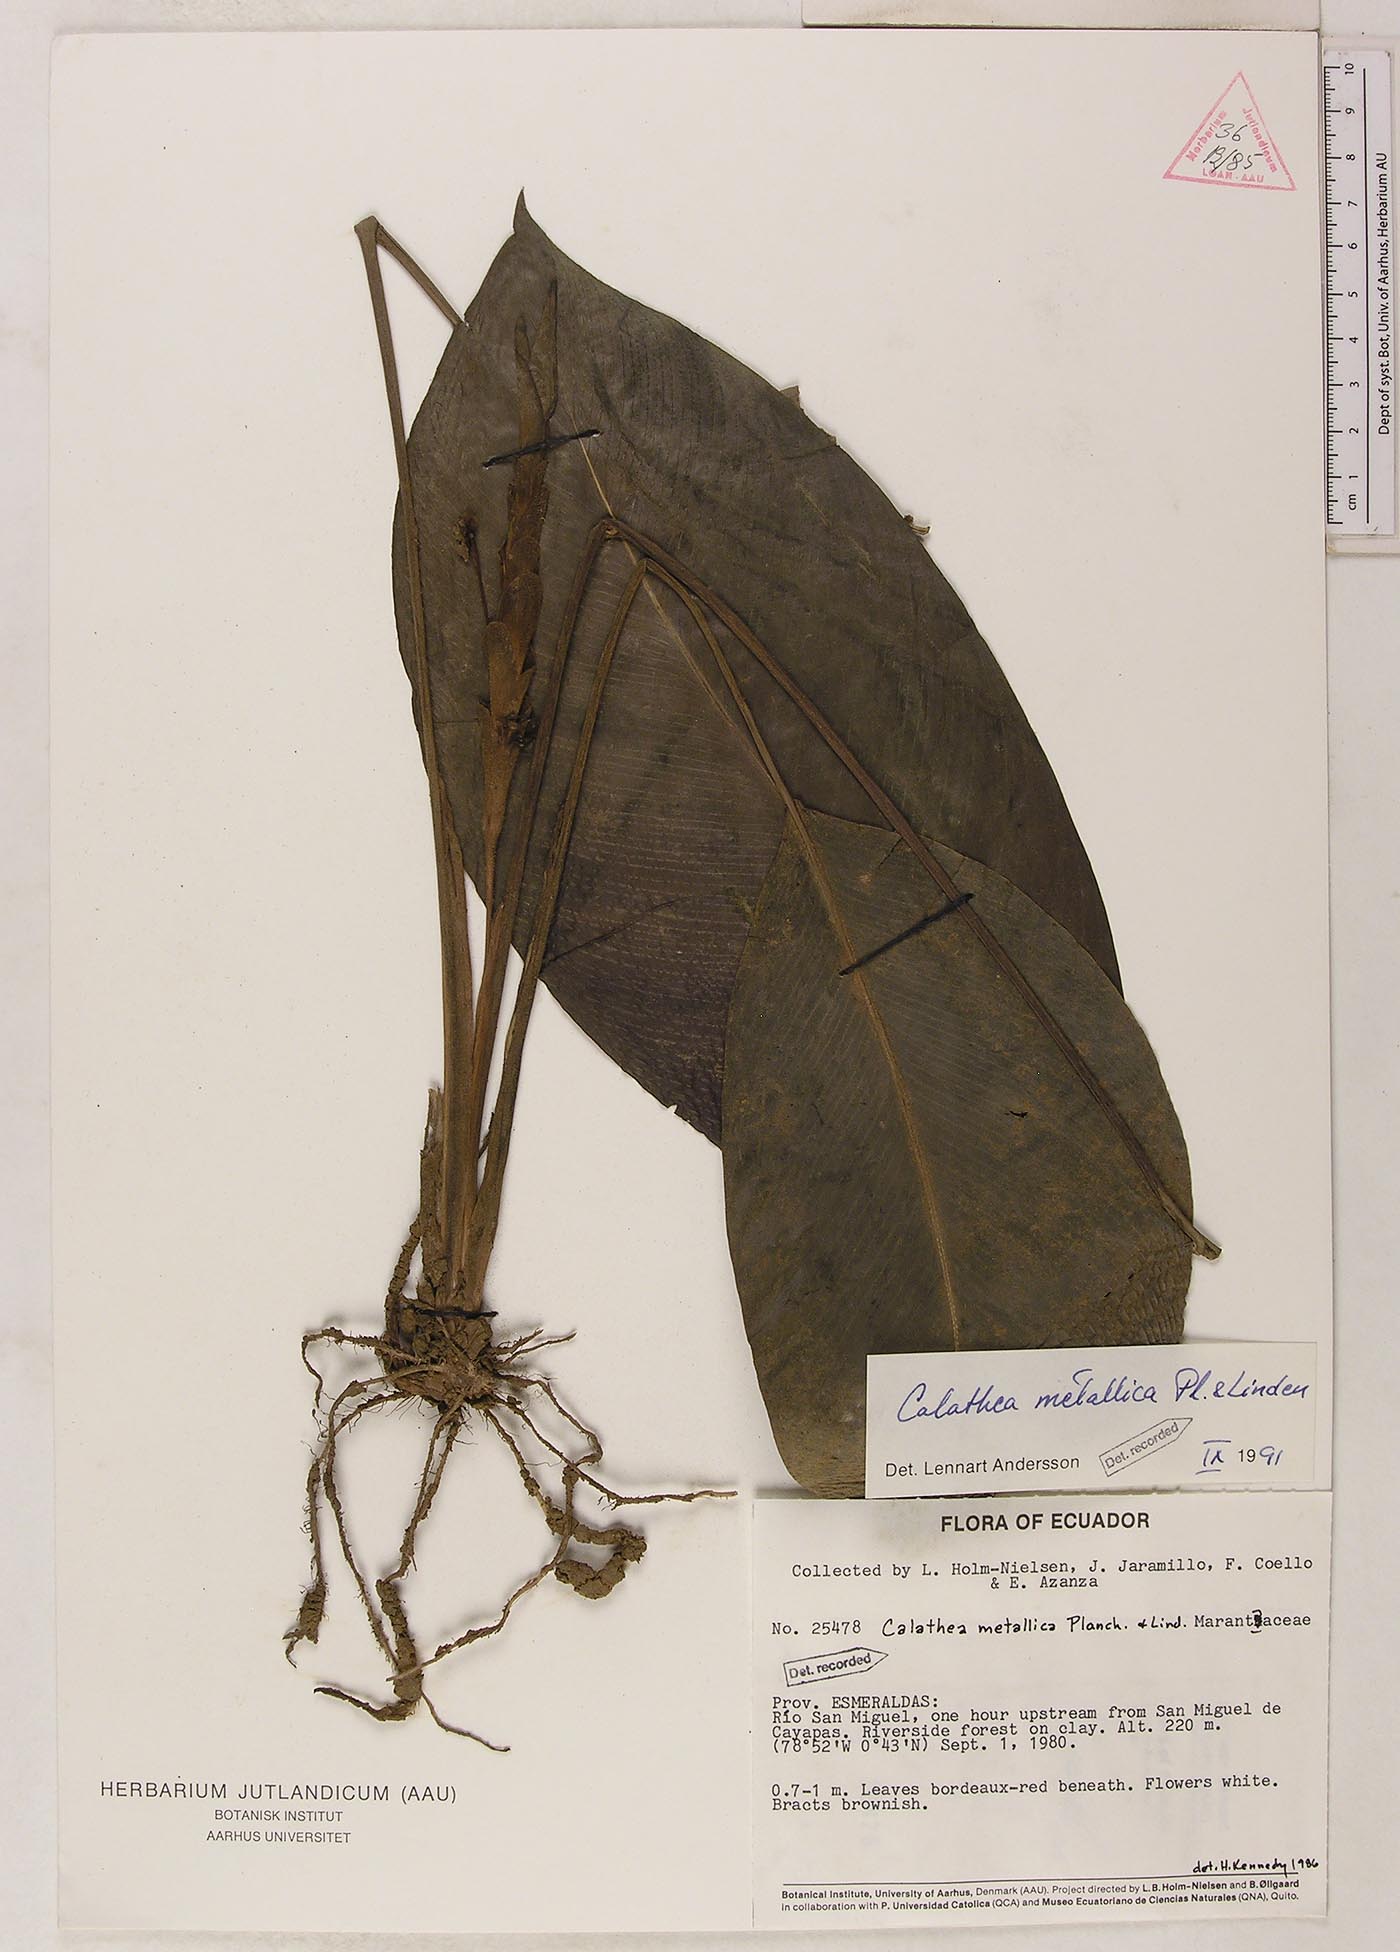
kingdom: Plantae
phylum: Tracheophyta
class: Liliopsida
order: Zingiberales
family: Marantaceae
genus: Goeppertia
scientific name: Goeppertia metallica
